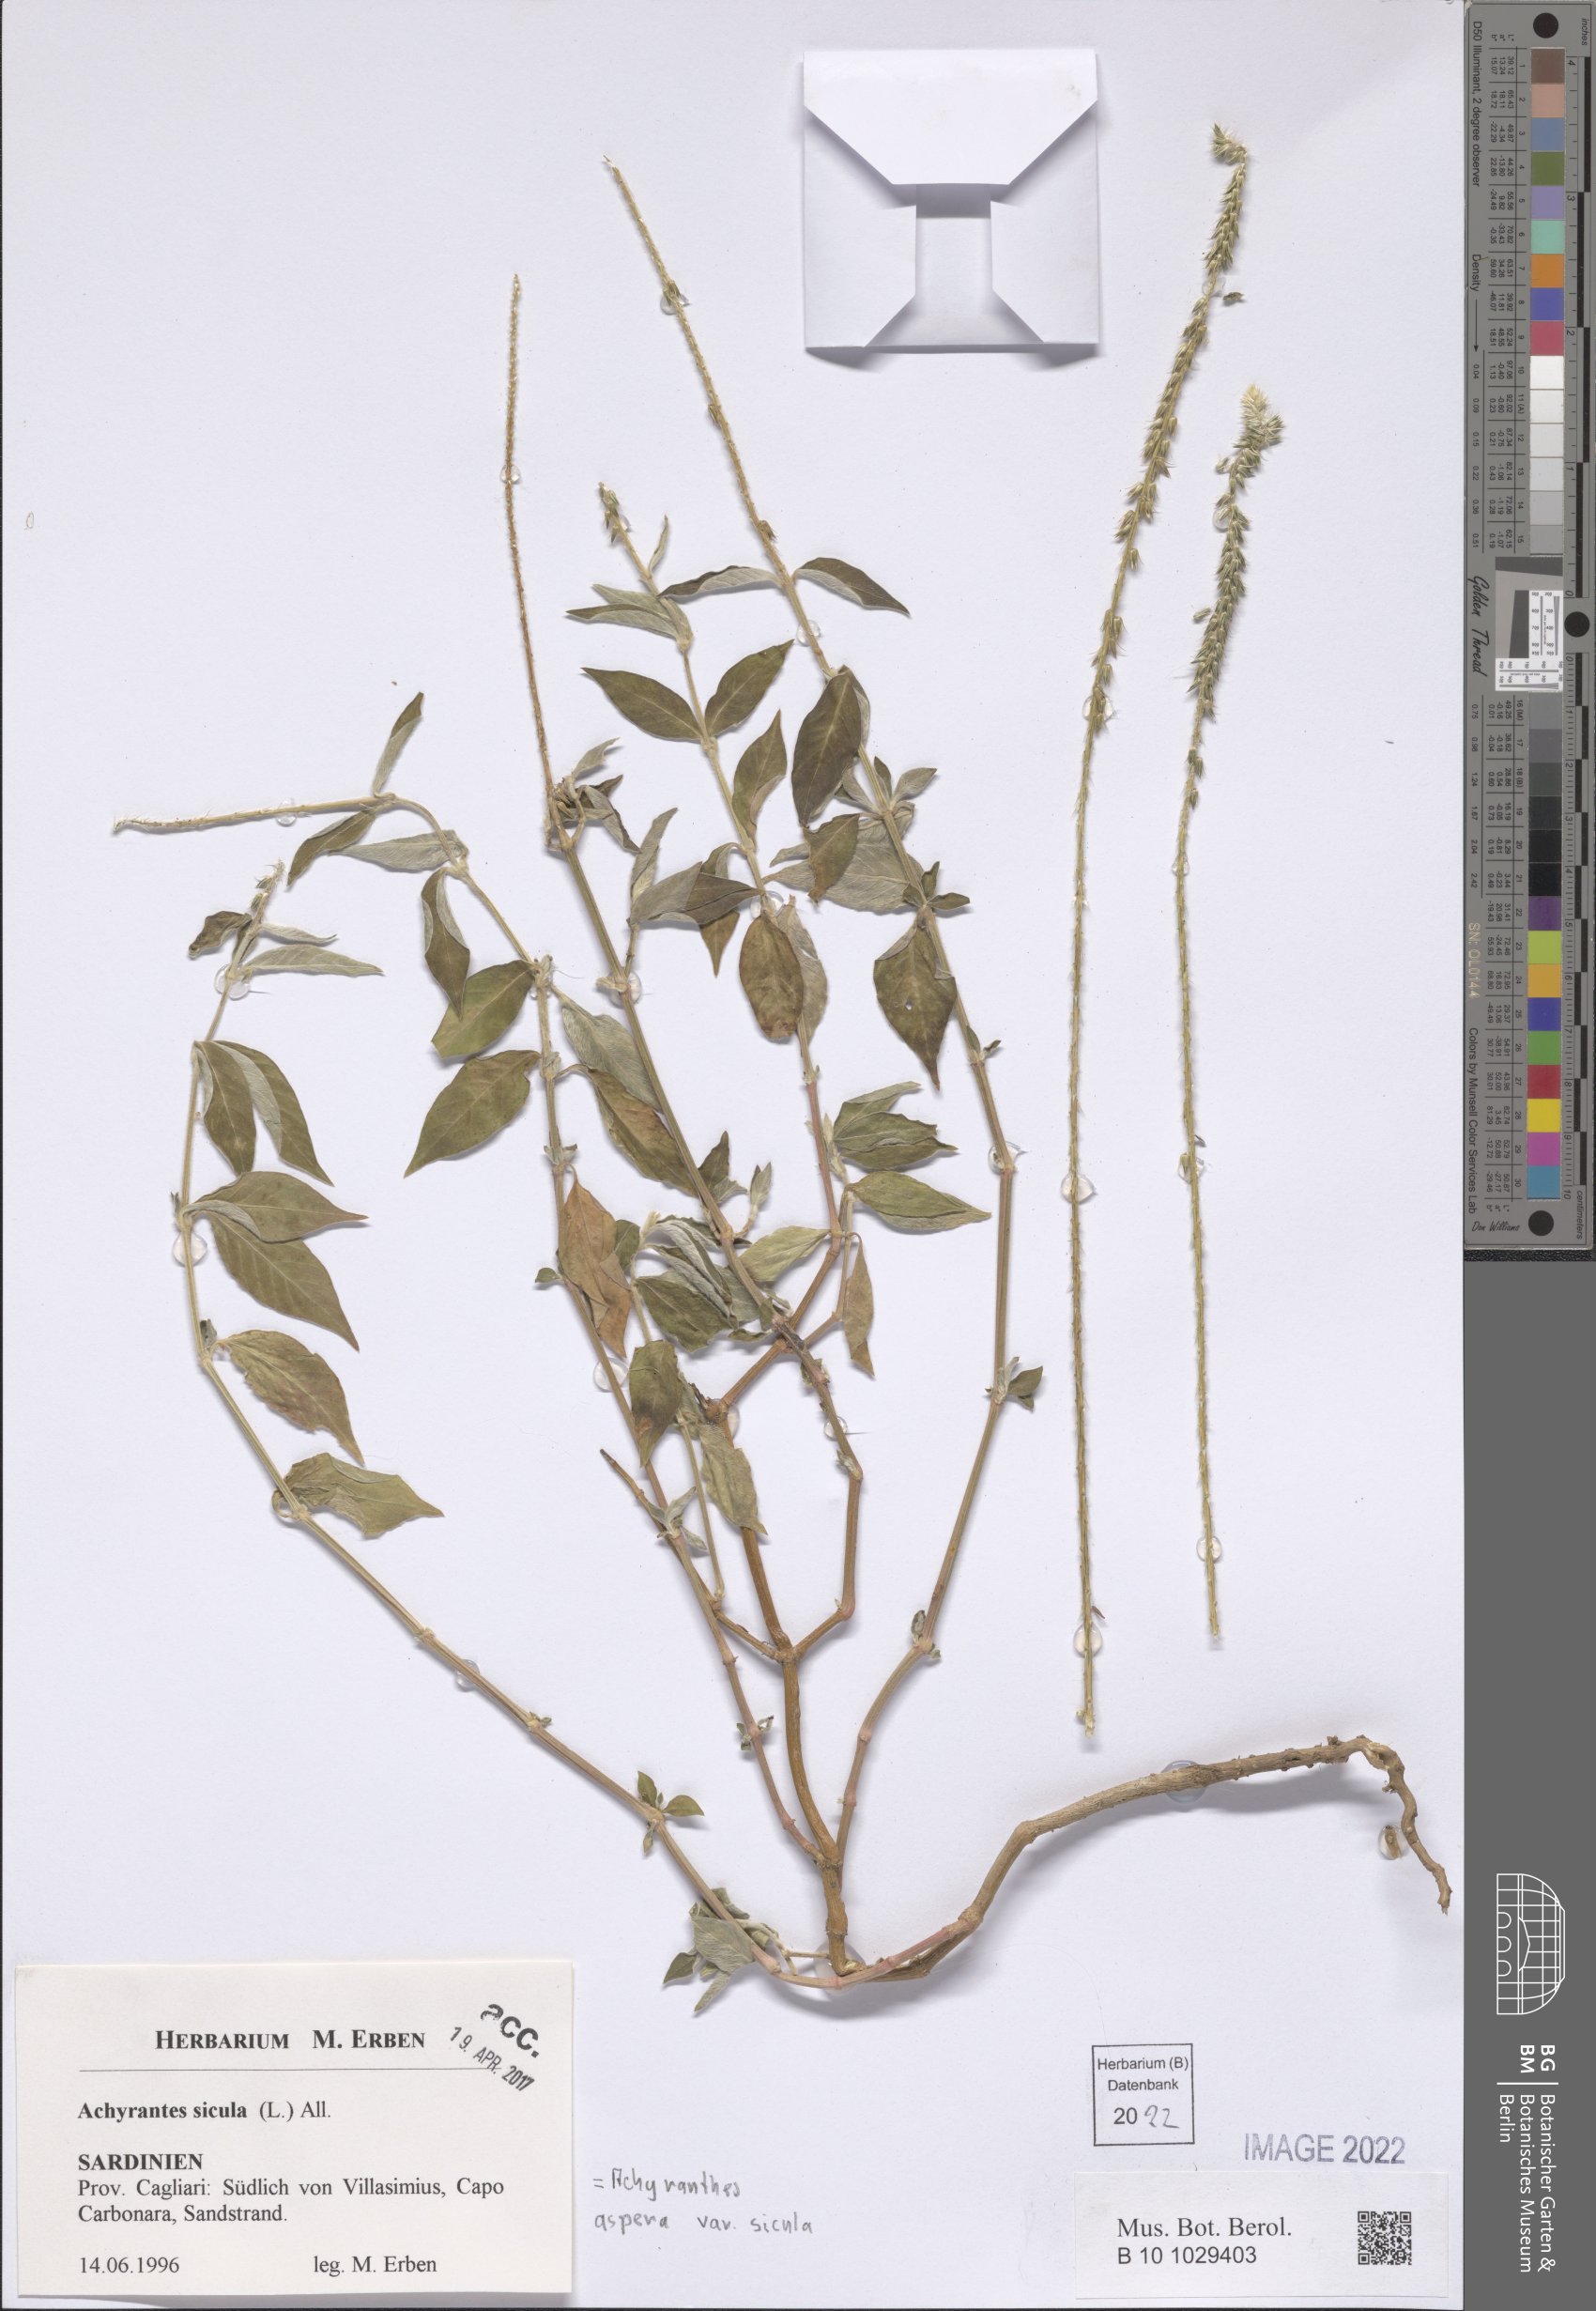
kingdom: Plantae
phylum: Tracheophyta
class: Magnoliopsida
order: Caryophyllales
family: Amaranthaceae
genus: Achyranthes
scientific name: Achyranthes sicula
